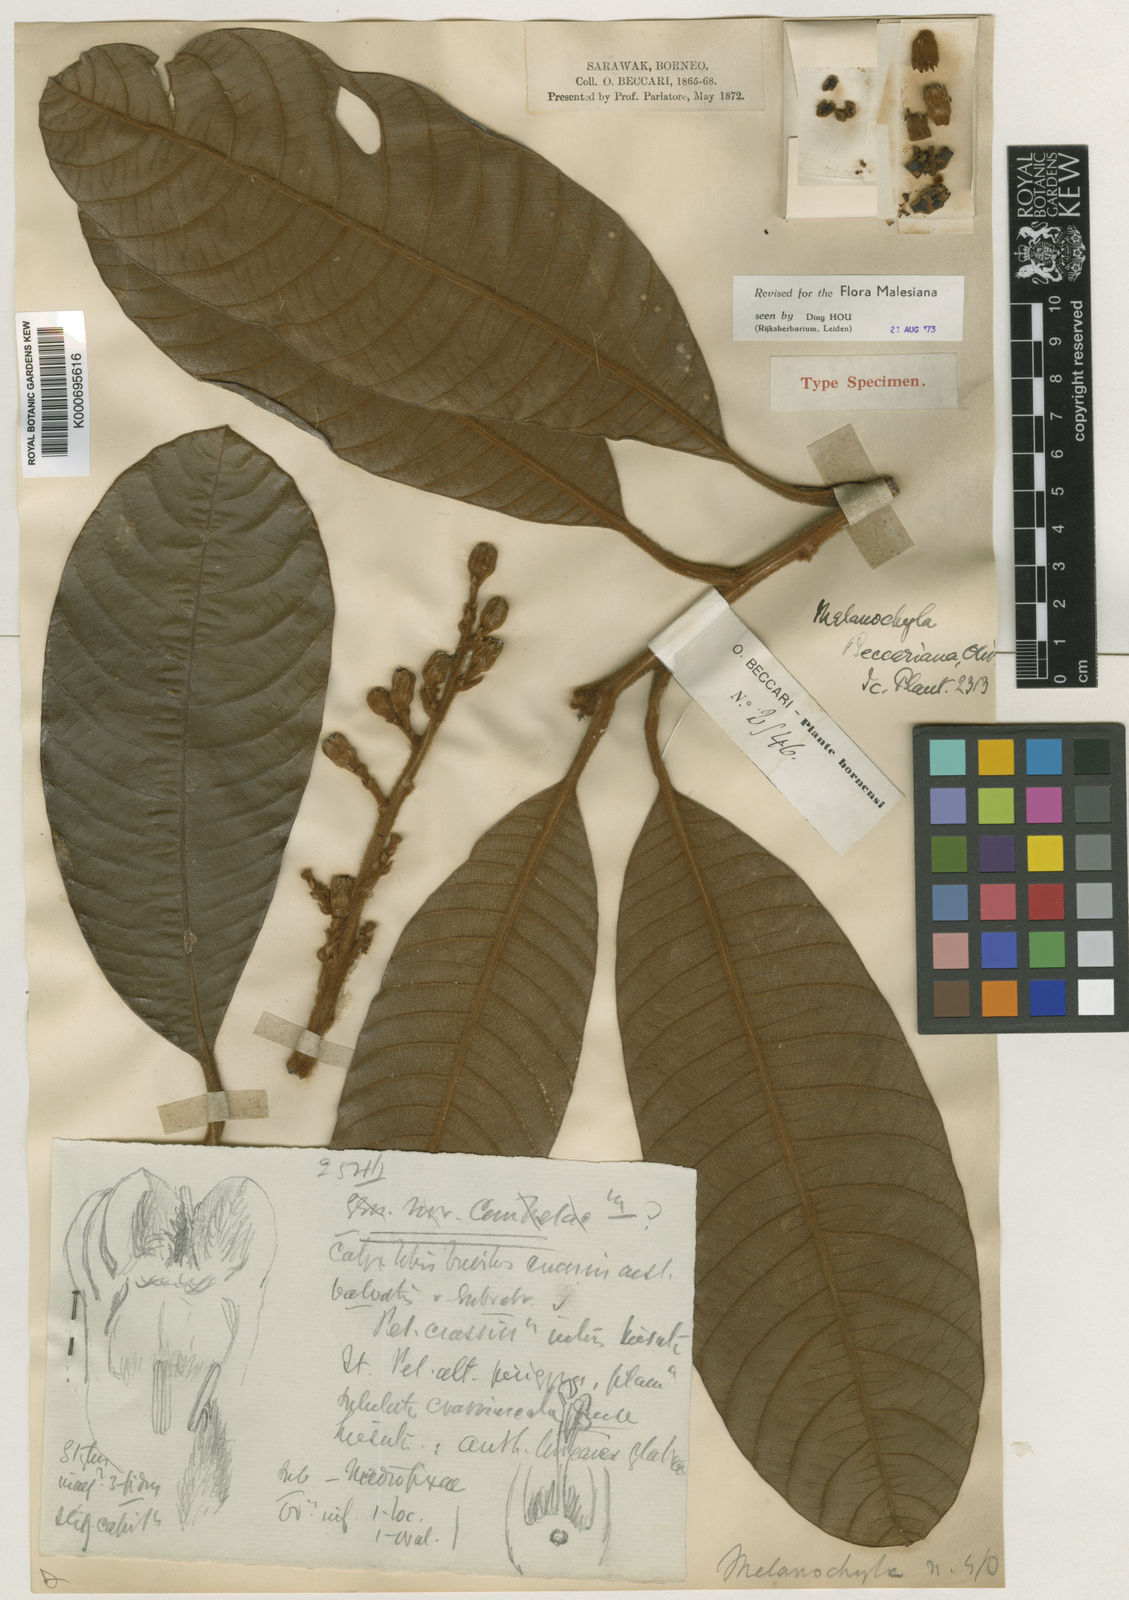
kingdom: Plantae
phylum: Tracheophyta
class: Magnoliopsida
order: Sapindales
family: Anacardiaceae
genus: Melanochyla
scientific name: Melanochyla beccariana
